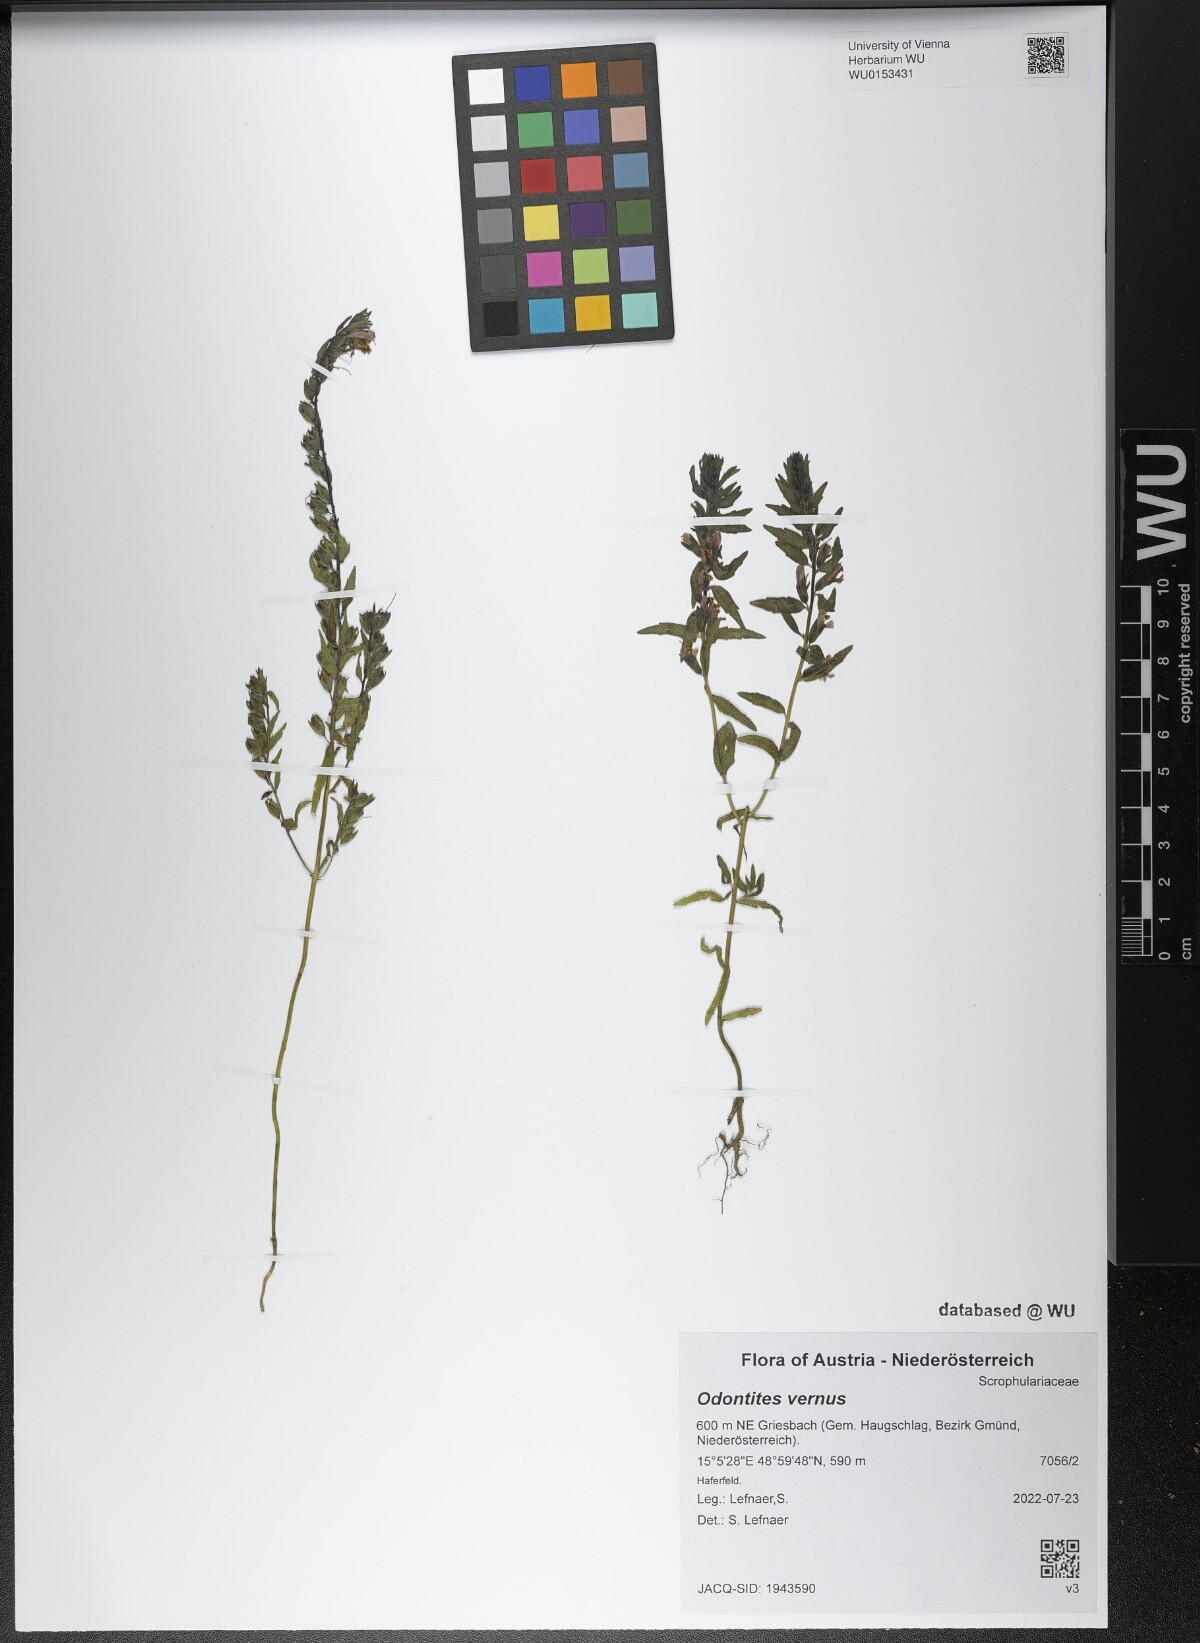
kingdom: Plantae
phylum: Tracheophyta
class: Magnoliopsida
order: Lamiales
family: Orobanchaceae
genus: Odontites
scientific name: Odontites vernus
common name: Red bartsia
